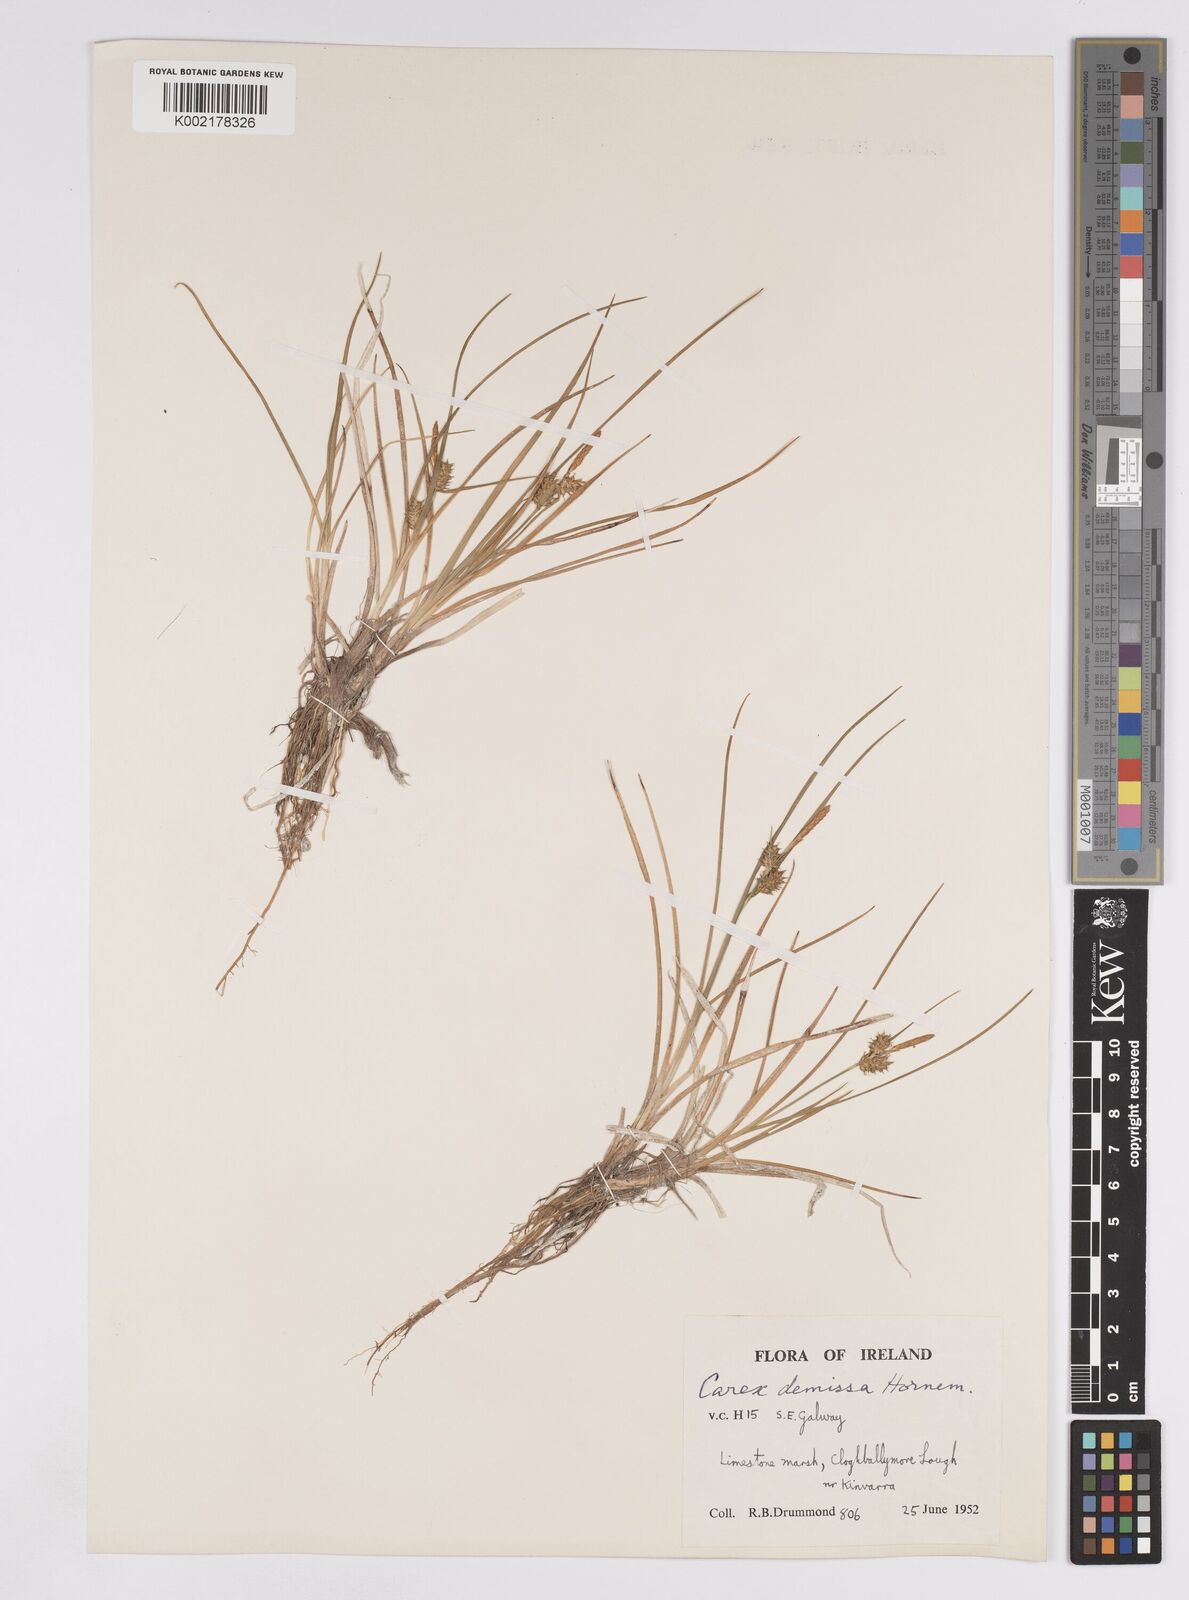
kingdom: Plantae
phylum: Tracheophyta
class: Liliopsida
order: Poales
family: Cyperaceae
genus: Carex
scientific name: Carex demissa
